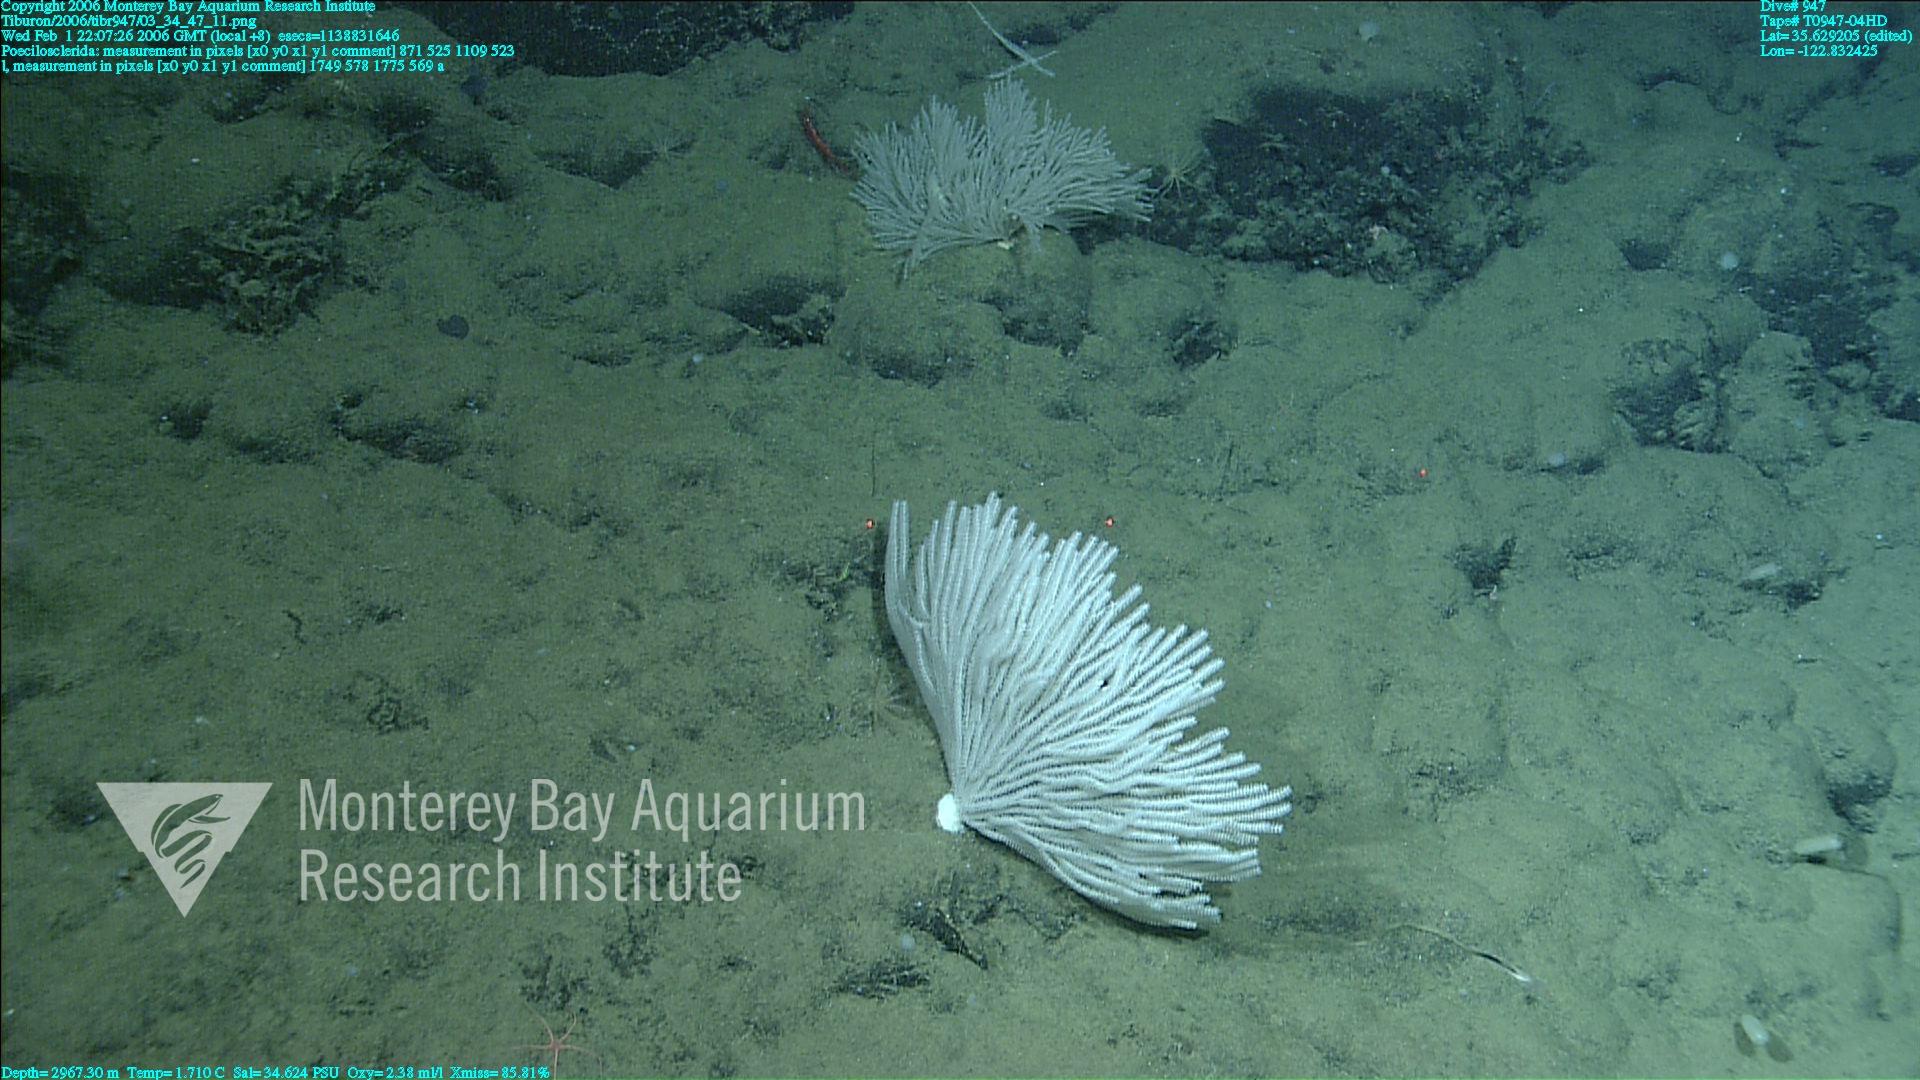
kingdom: Animalia
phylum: Porifera
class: Demospongiae
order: Poecilosclerida
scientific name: Poecilosclerida
